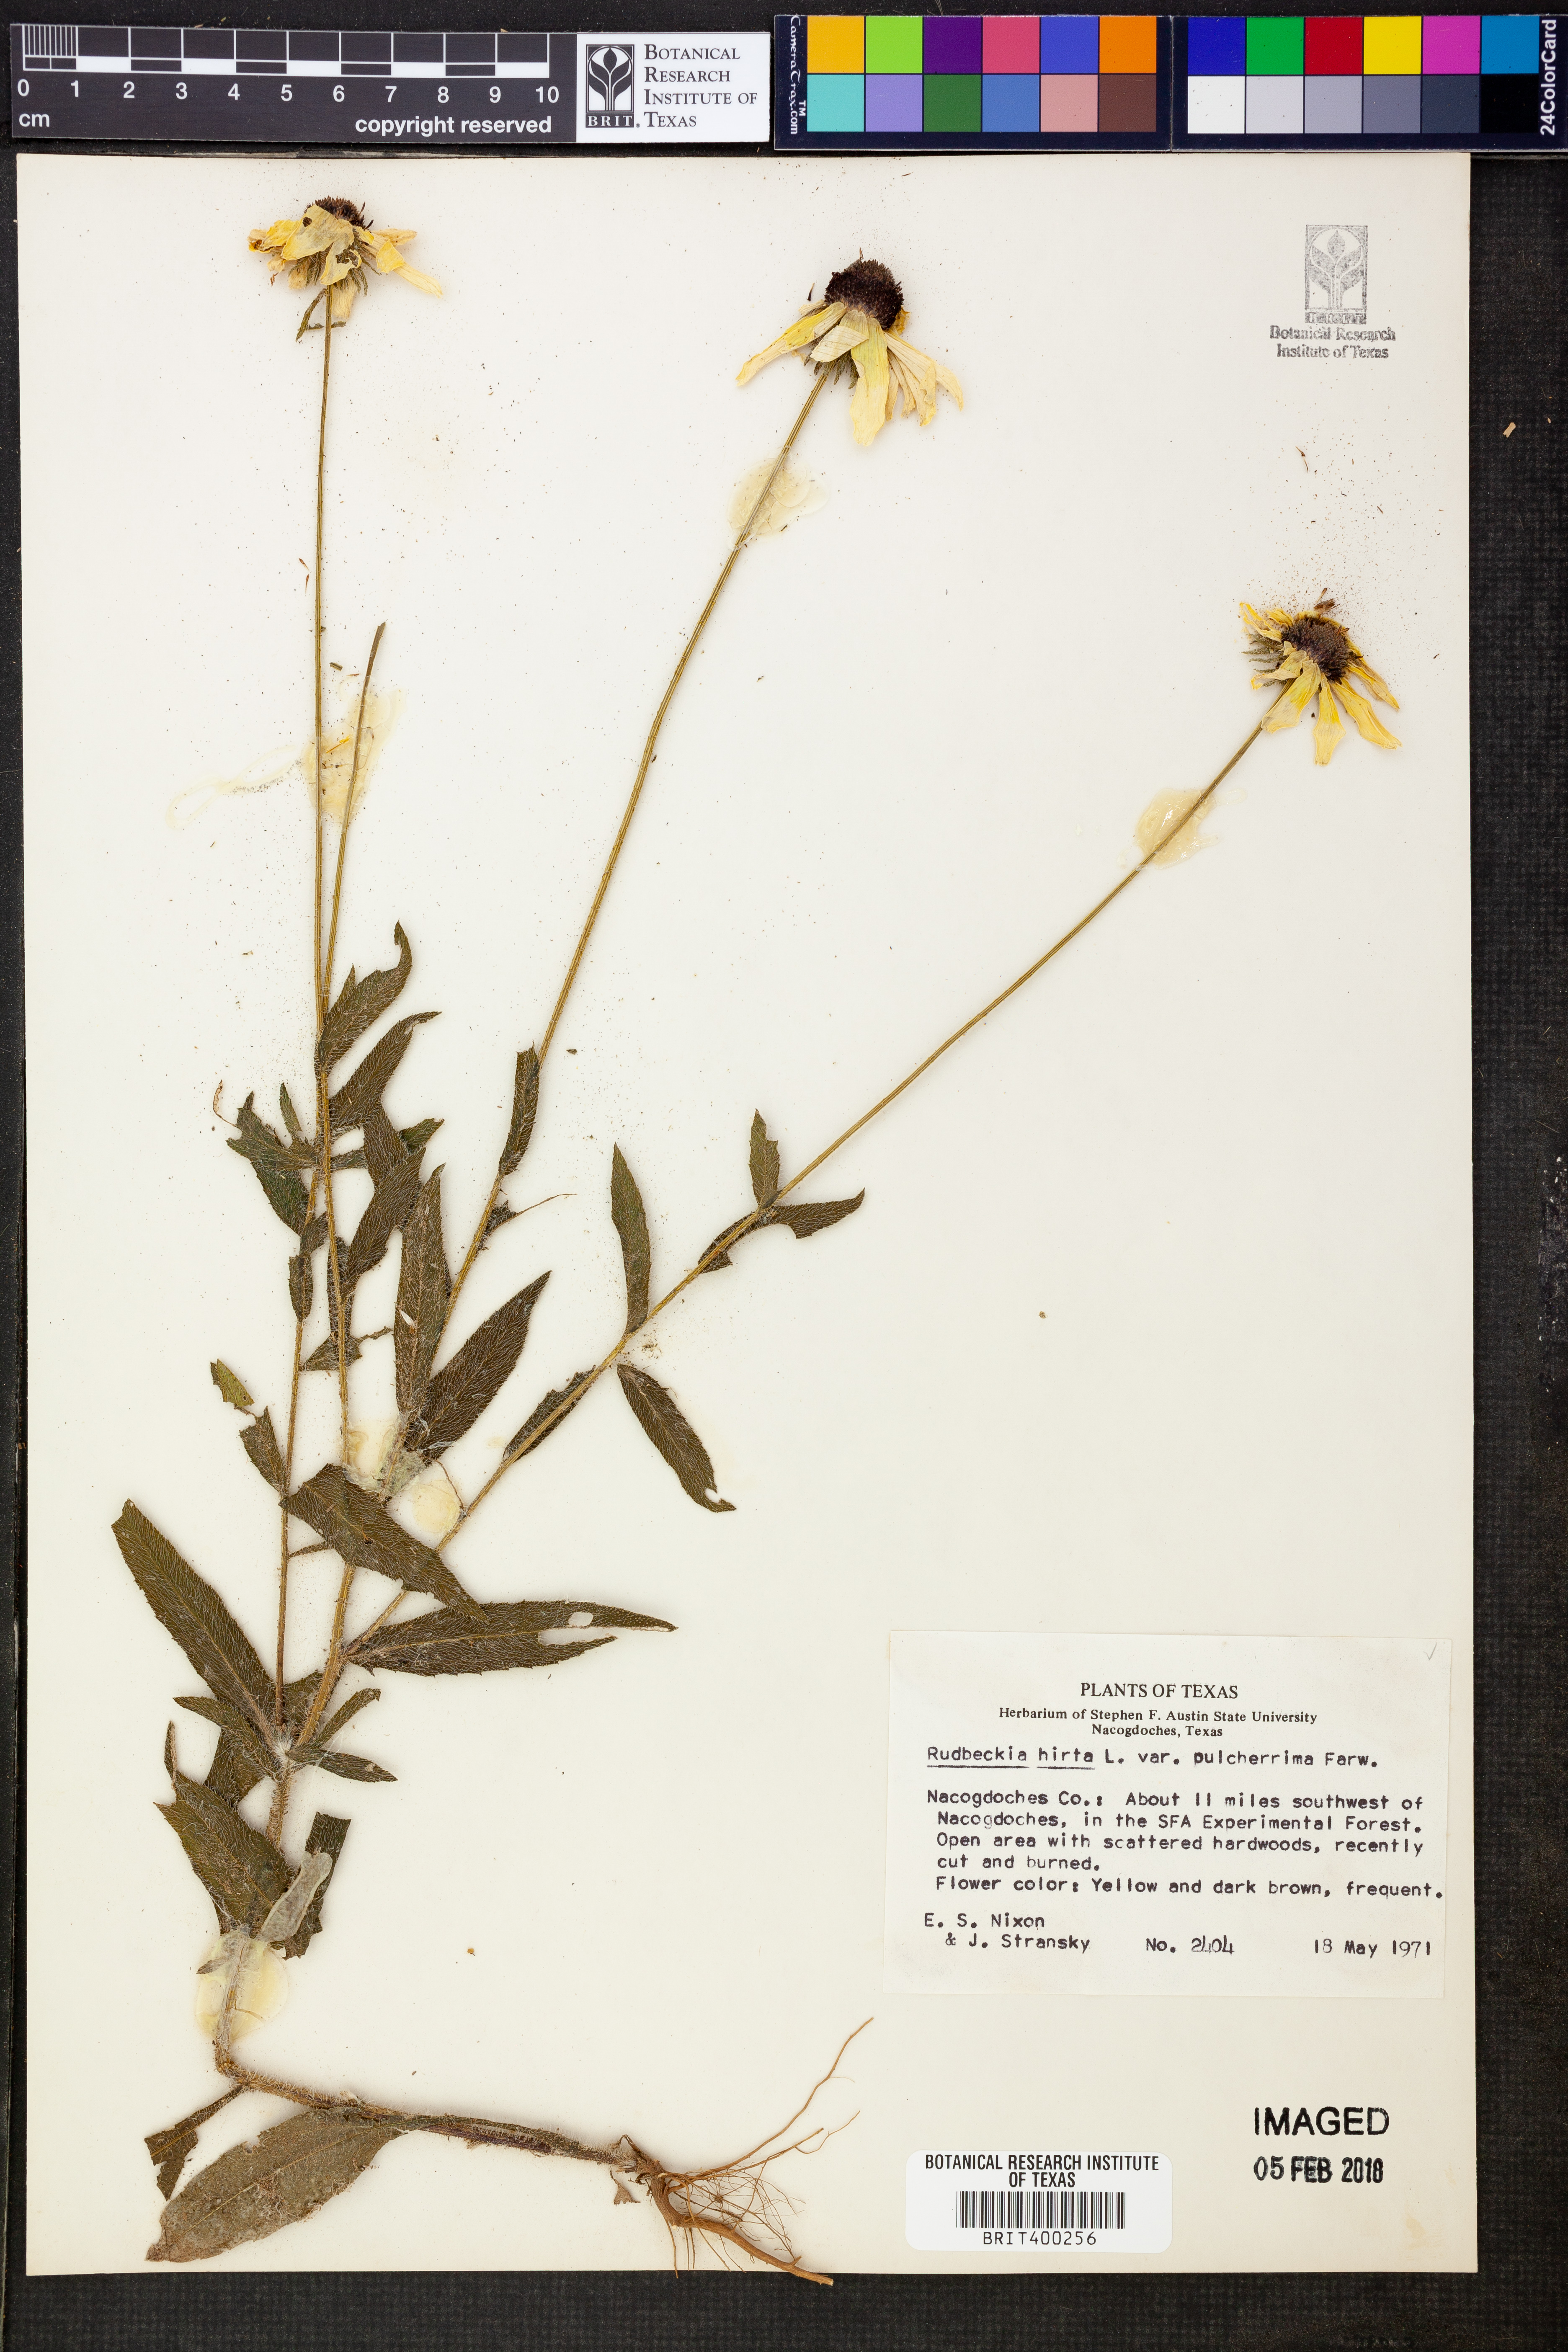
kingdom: Plantae
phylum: Tracheophyta
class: Magnoliopsida
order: Asterales
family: Asteraceae
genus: Rudbeckia
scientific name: Rudbeckia hirta
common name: Black-eyed-susan
